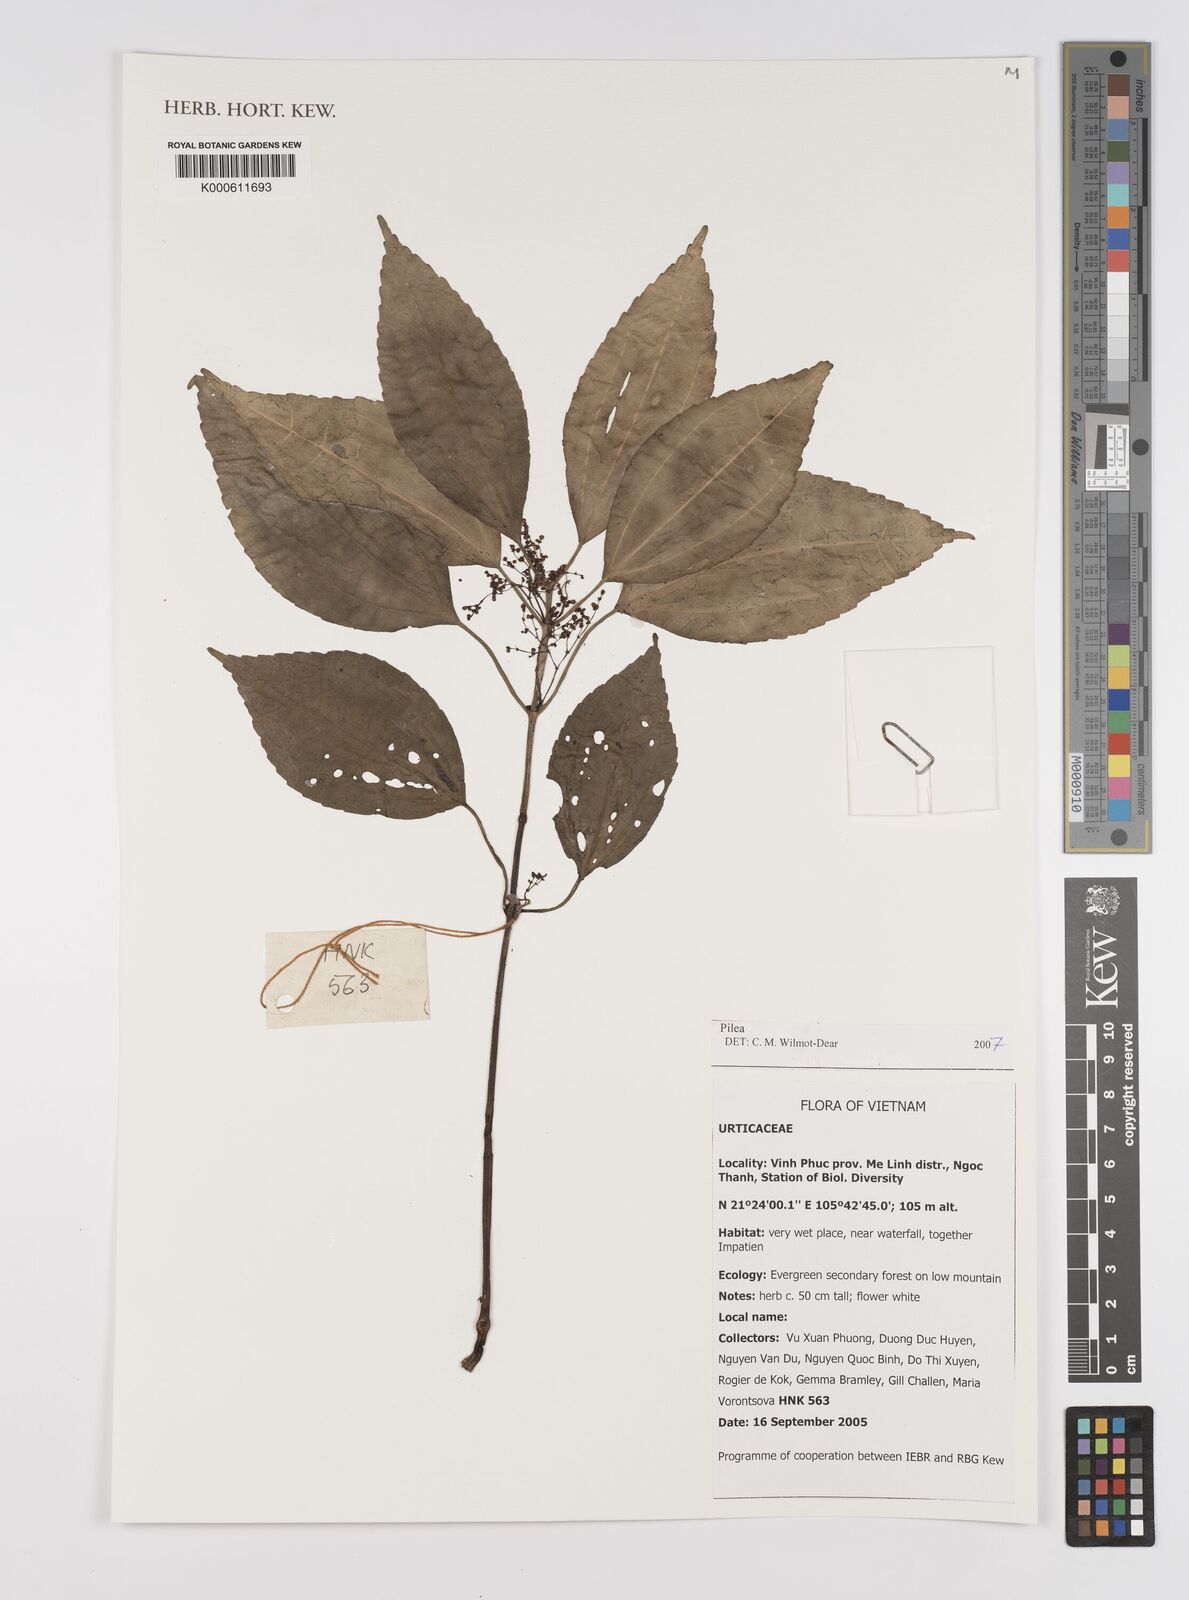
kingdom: Plantae
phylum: Tracheophyta
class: Magnoliopsida
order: Rosales
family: Urticaceae
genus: Pilea
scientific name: Pilea
